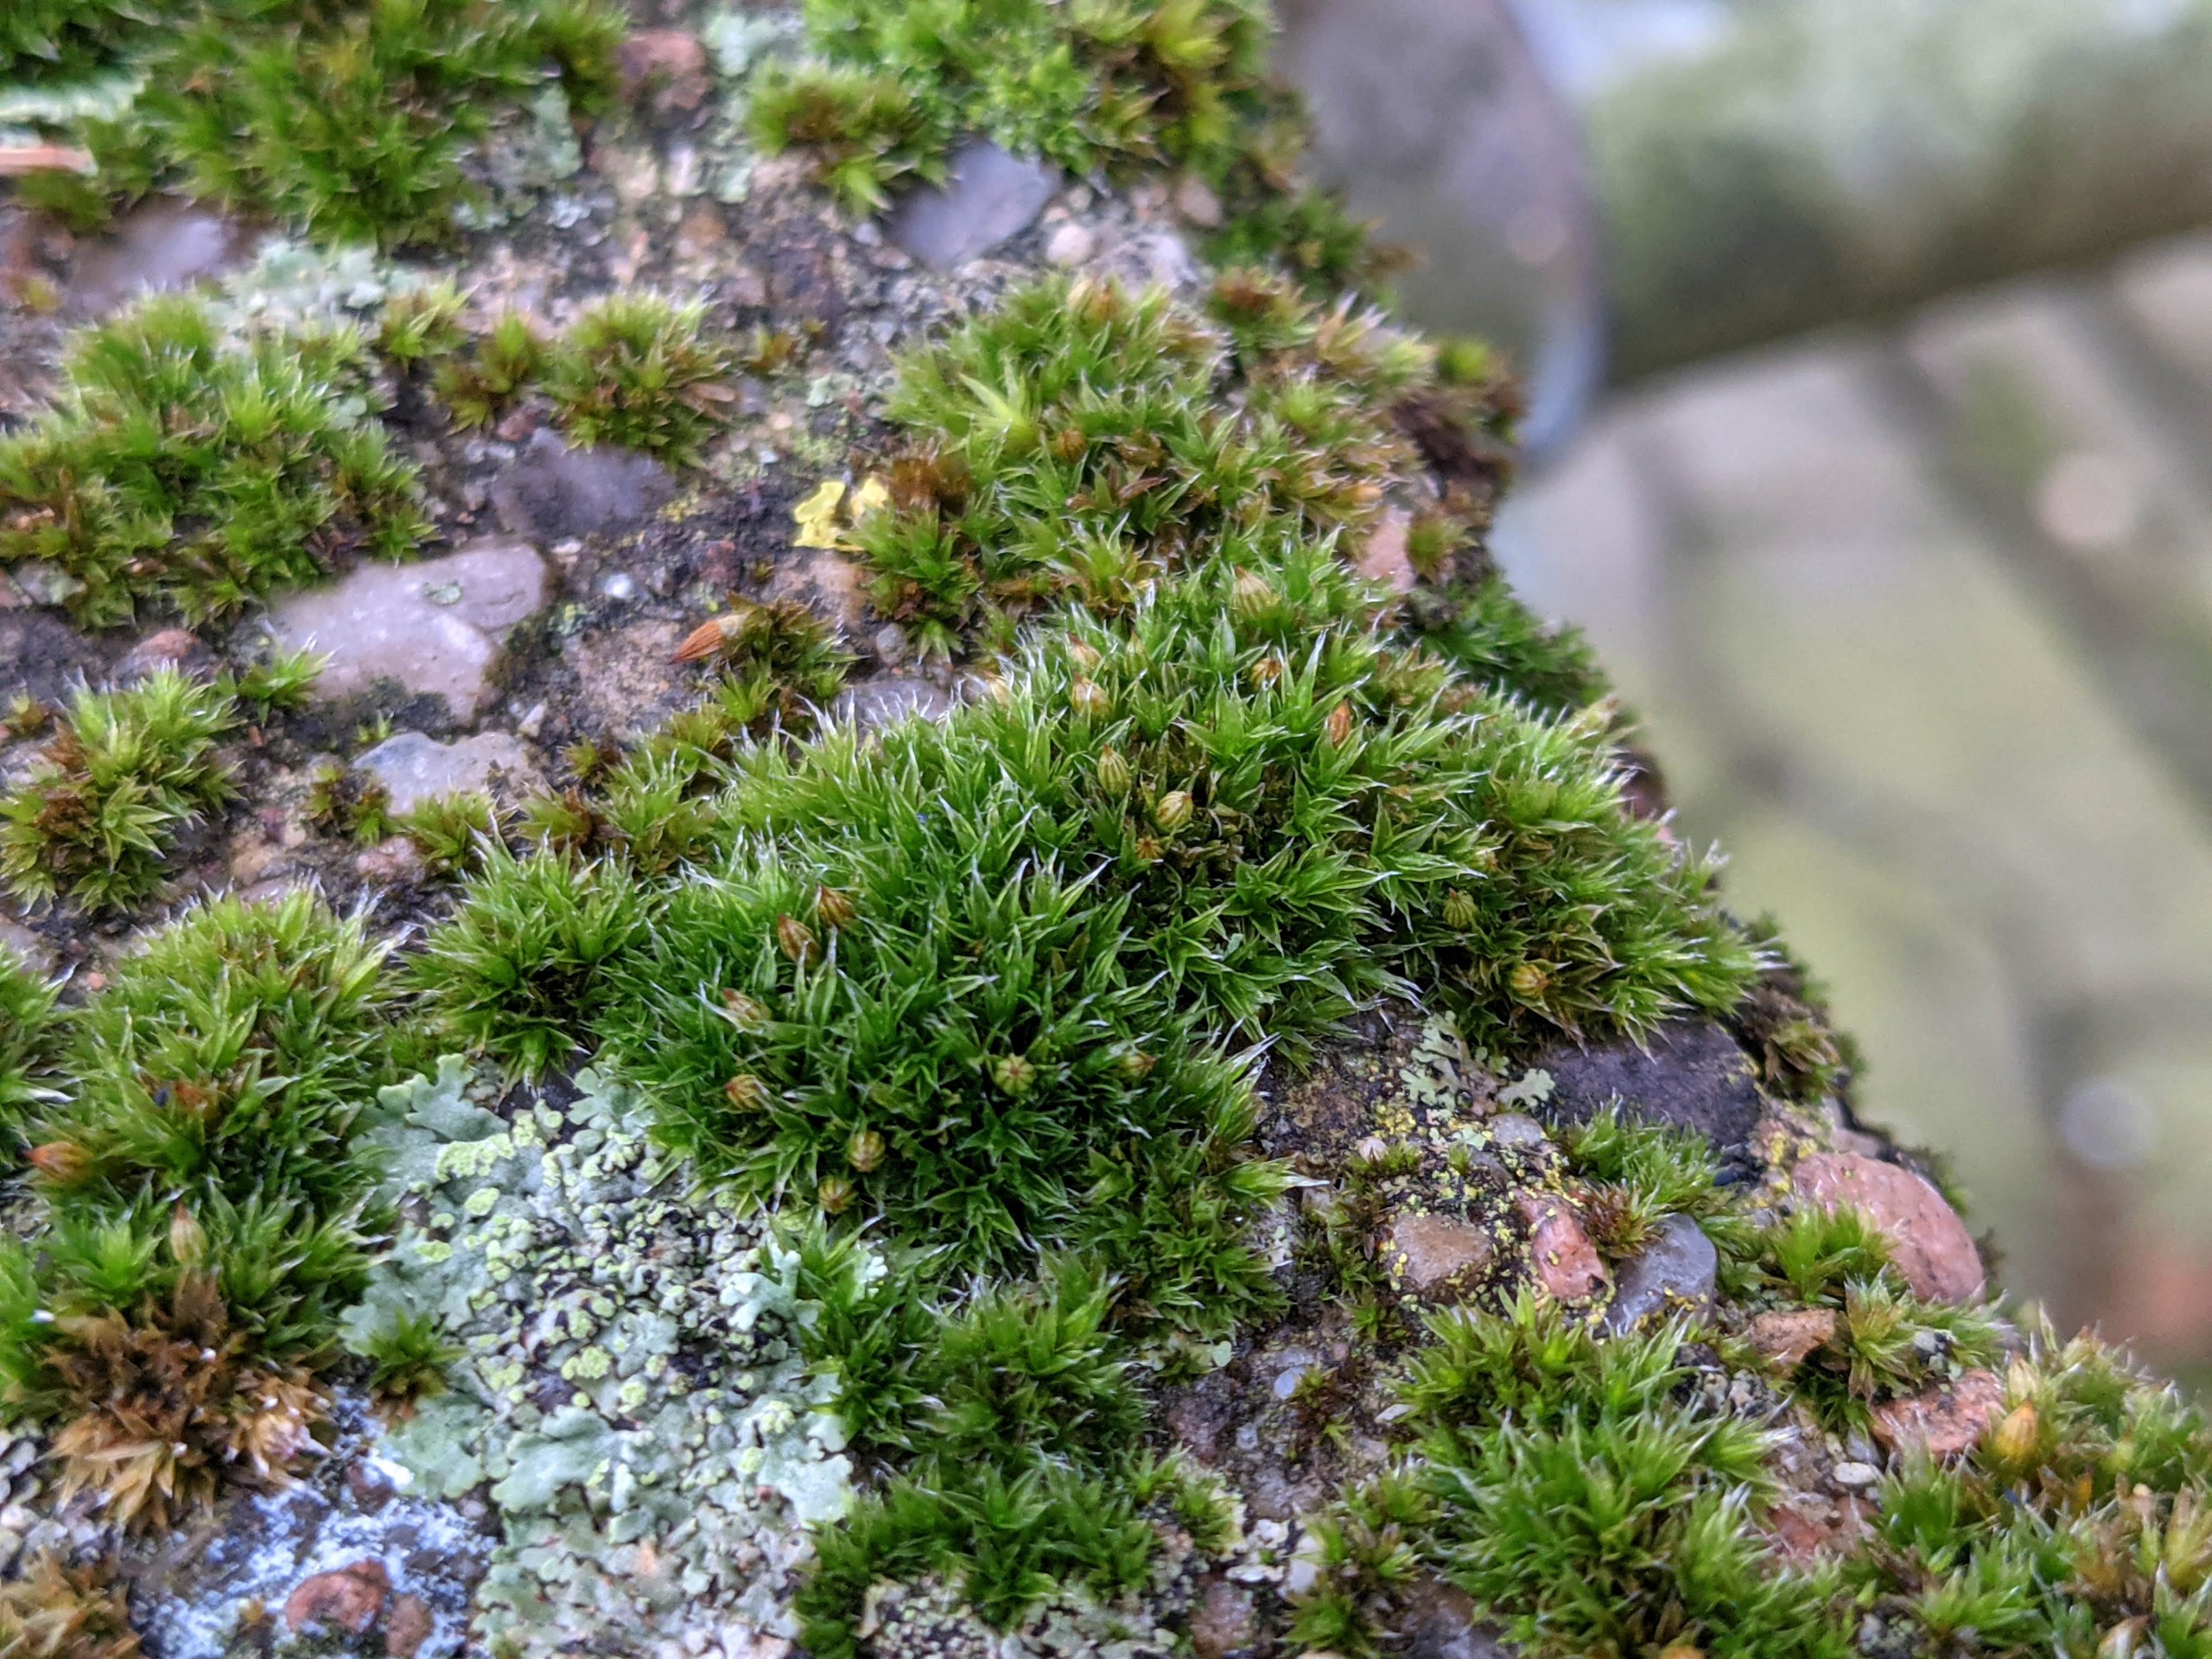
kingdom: Plantae
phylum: Bryophyta
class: Bryopsida
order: Orthotrichales
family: Orthotrichaceae
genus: Orthotrichum
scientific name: Orthotrichum diaphanum
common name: Hårspidset furehætte
